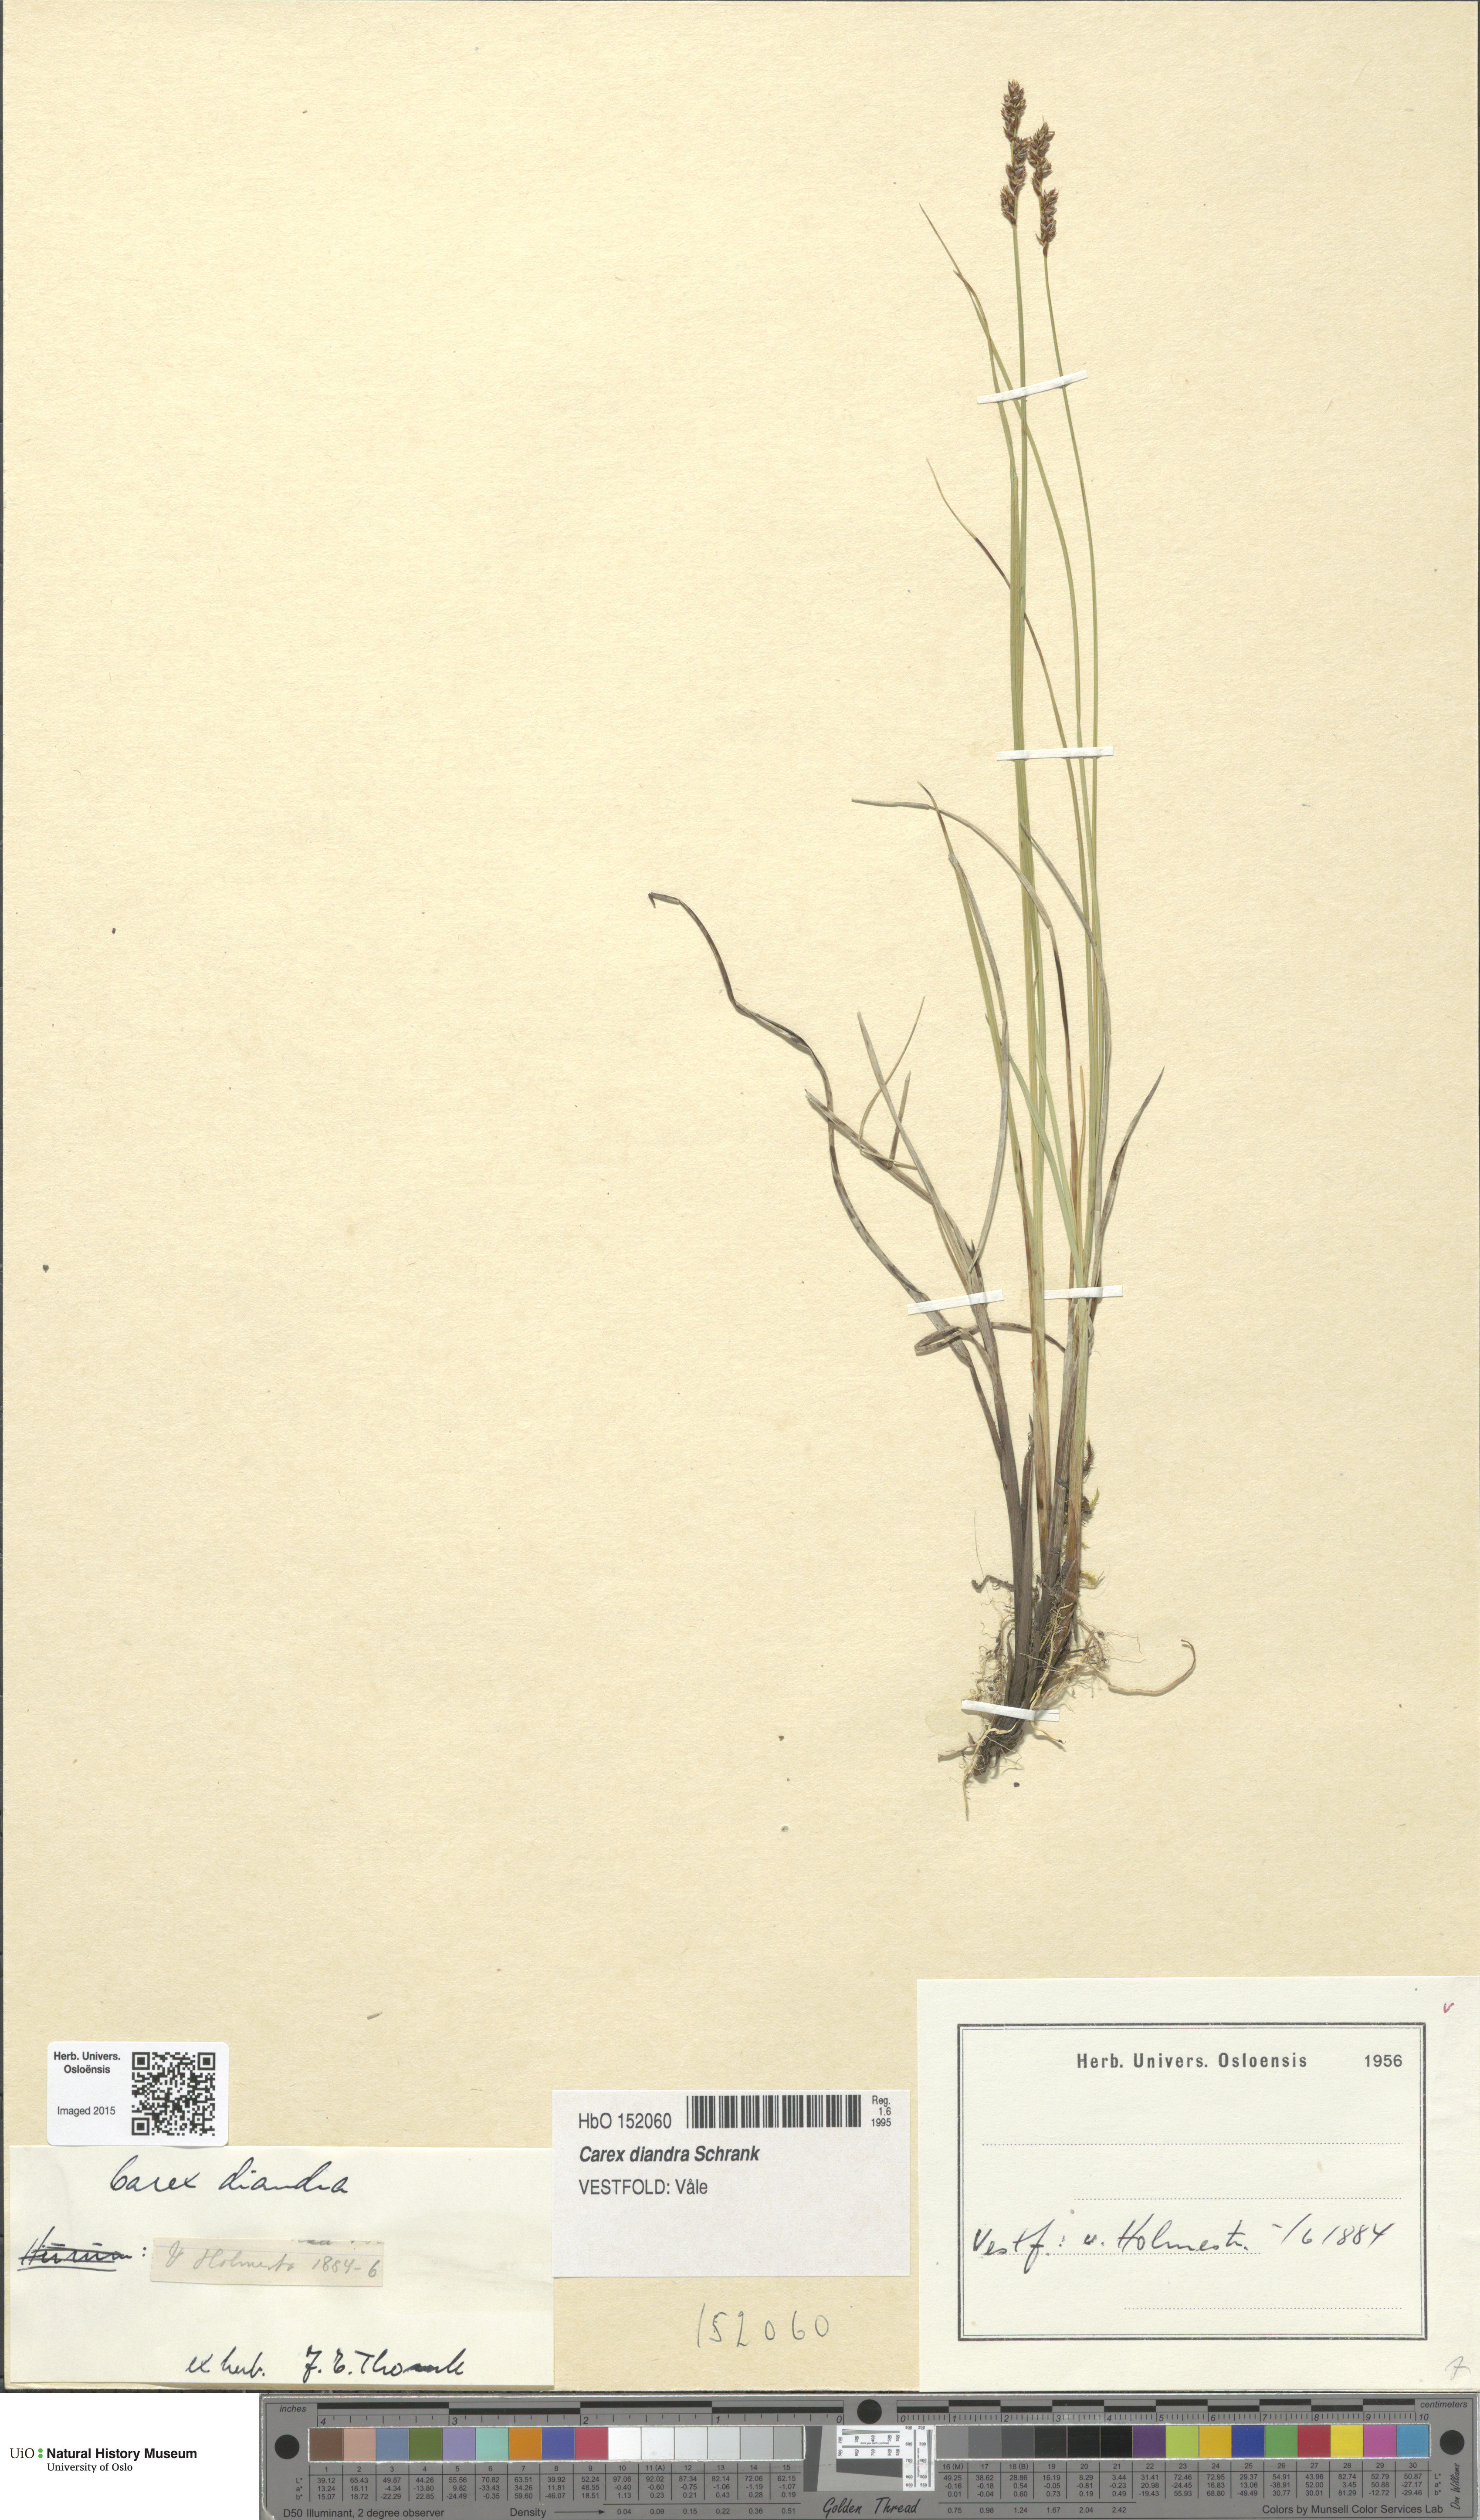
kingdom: Plantae
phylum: Tracheophyta
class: Liliopsida
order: Poales
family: Cyperaceae
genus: Carex
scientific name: Carex diandra
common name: Lesser tussock-sedge
